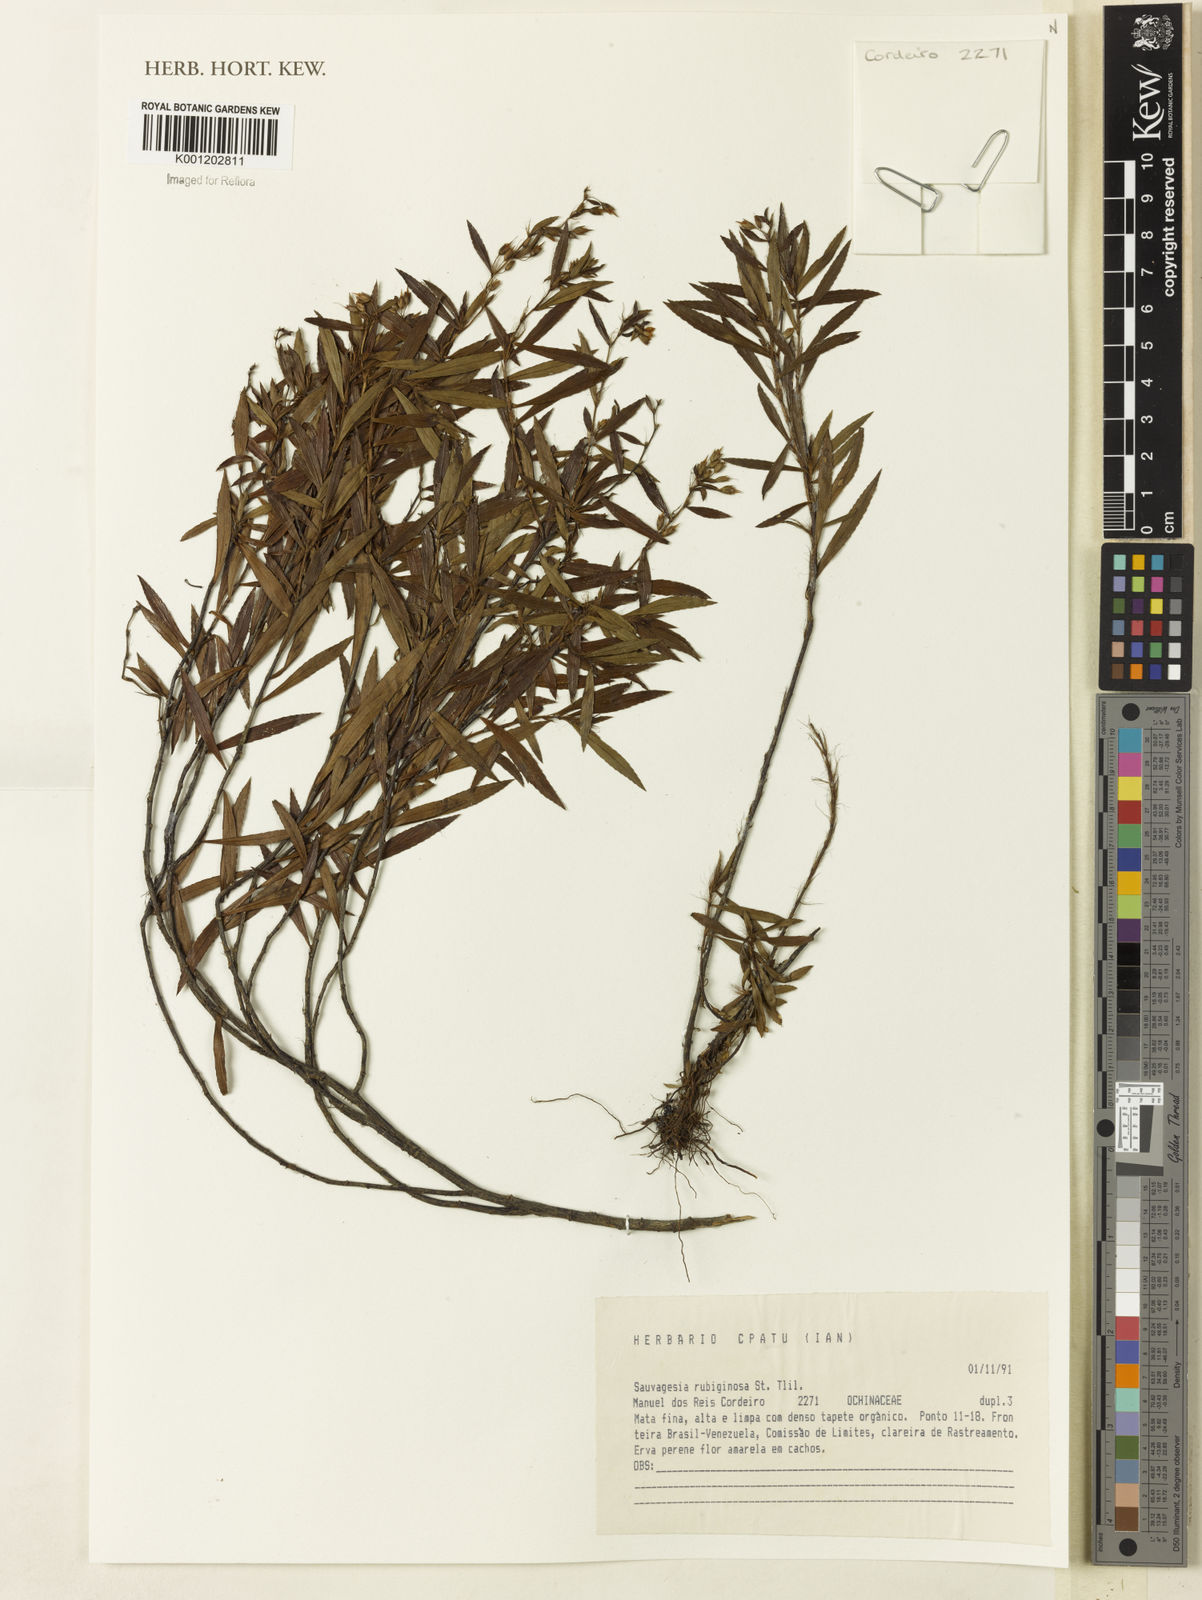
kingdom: Plantae
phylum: Tracheophyta
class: Magnoliopsida
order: Malpighiales
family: Ochnaceae
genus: Sauvagesia
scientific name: Sauvagesia rubiginosa
